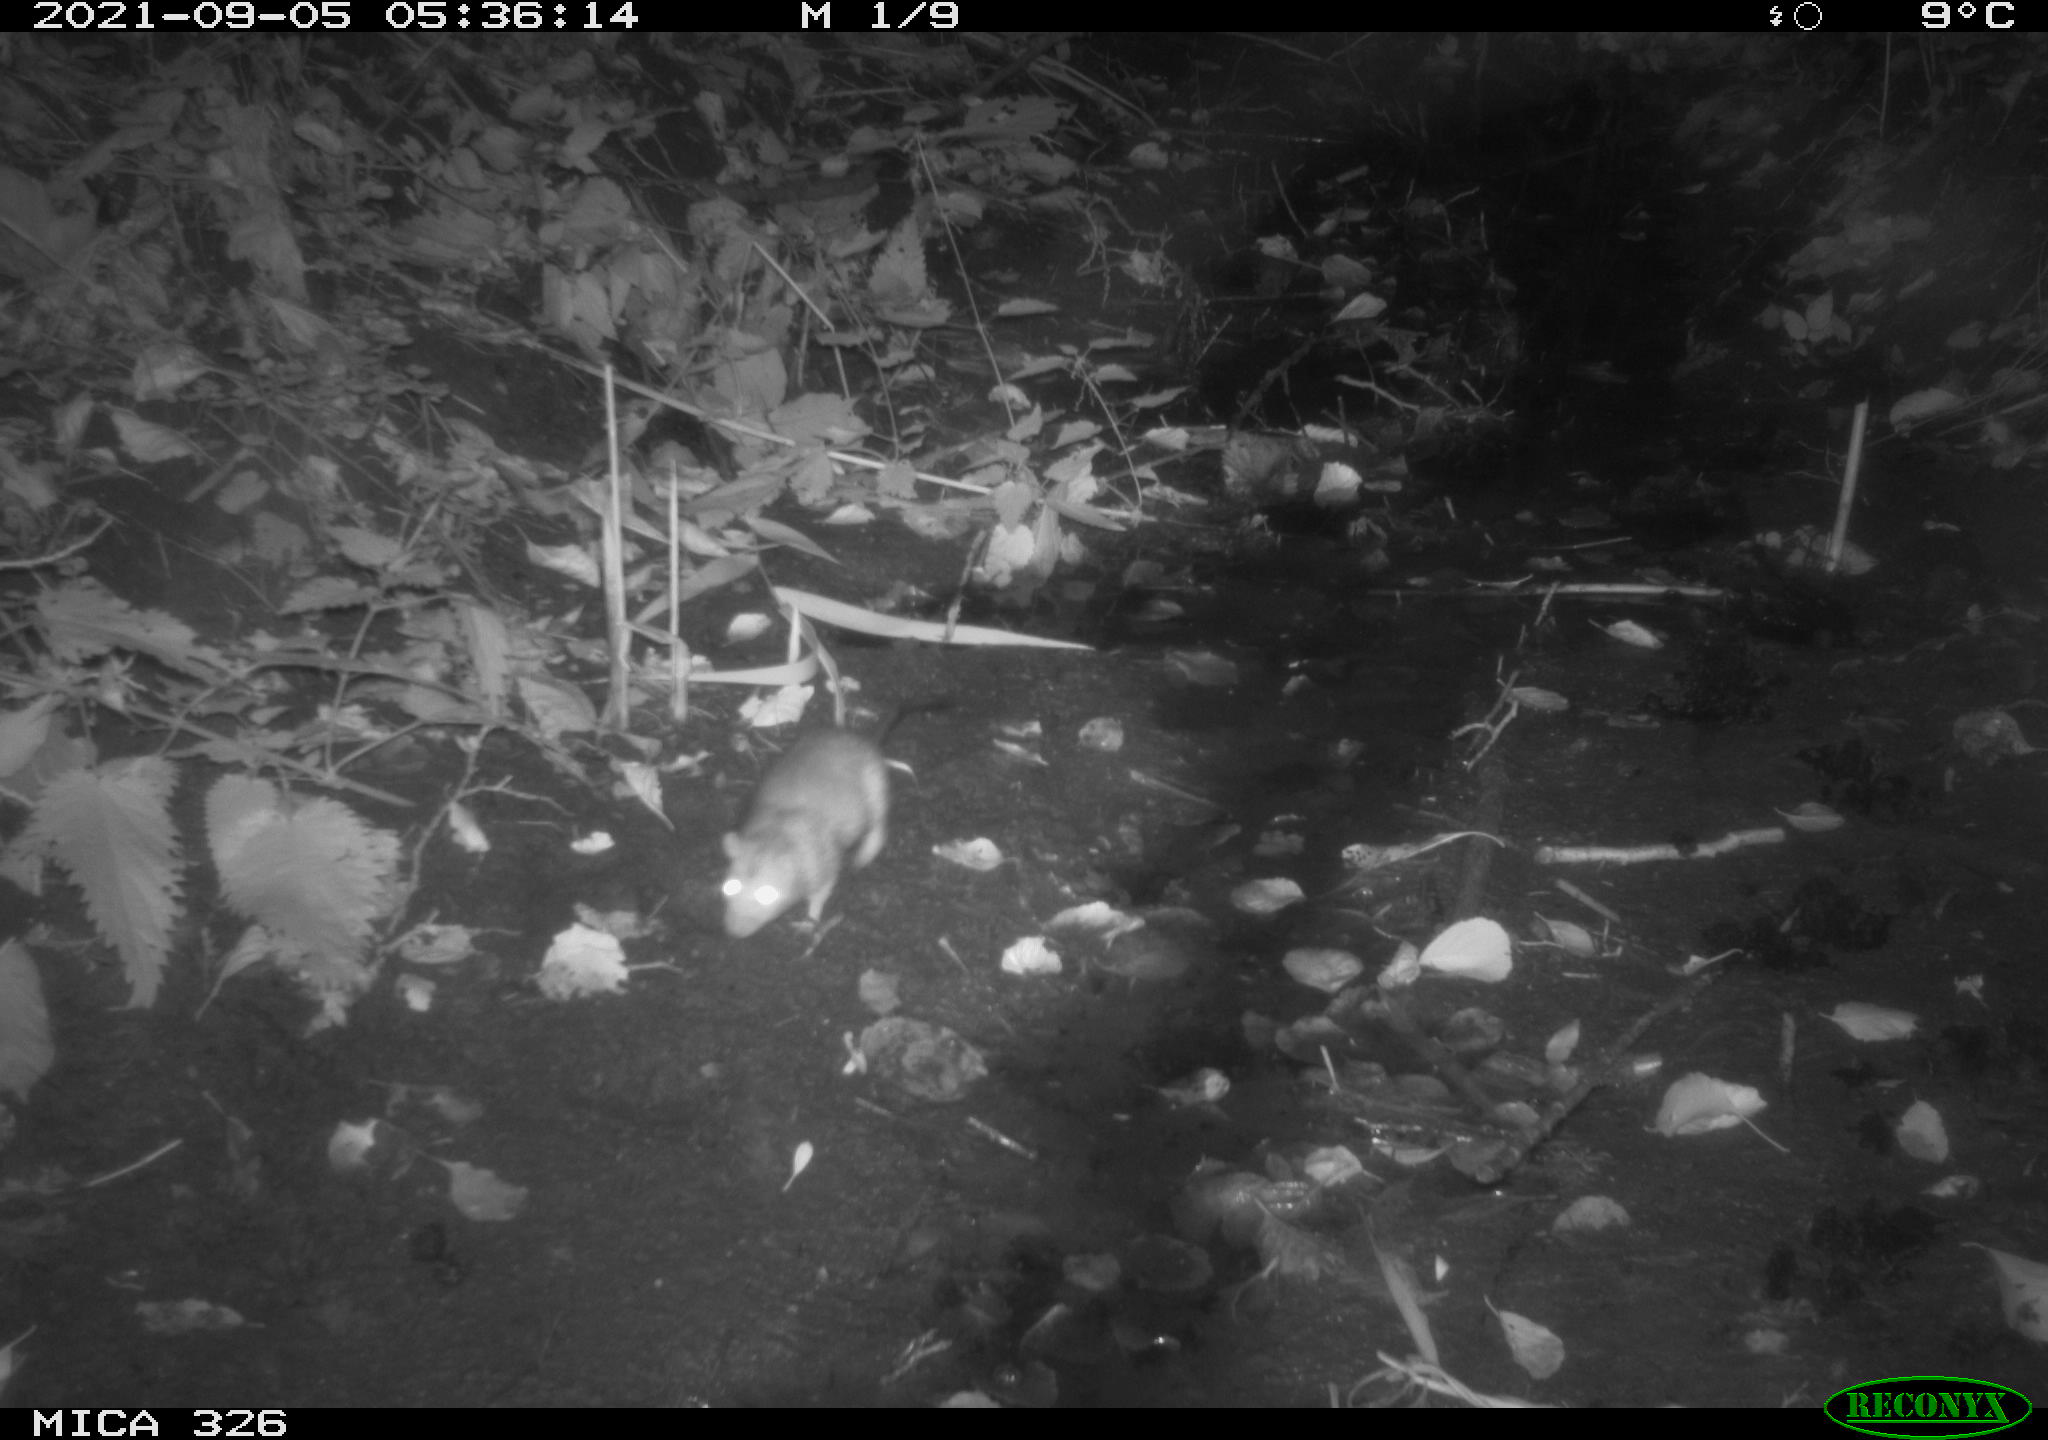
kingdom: Animalia
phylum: Chordata
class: Mammalia
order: Rodentia
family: Muridae
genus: Rattus
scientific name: Rattus norvegicus
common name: Brown rat
